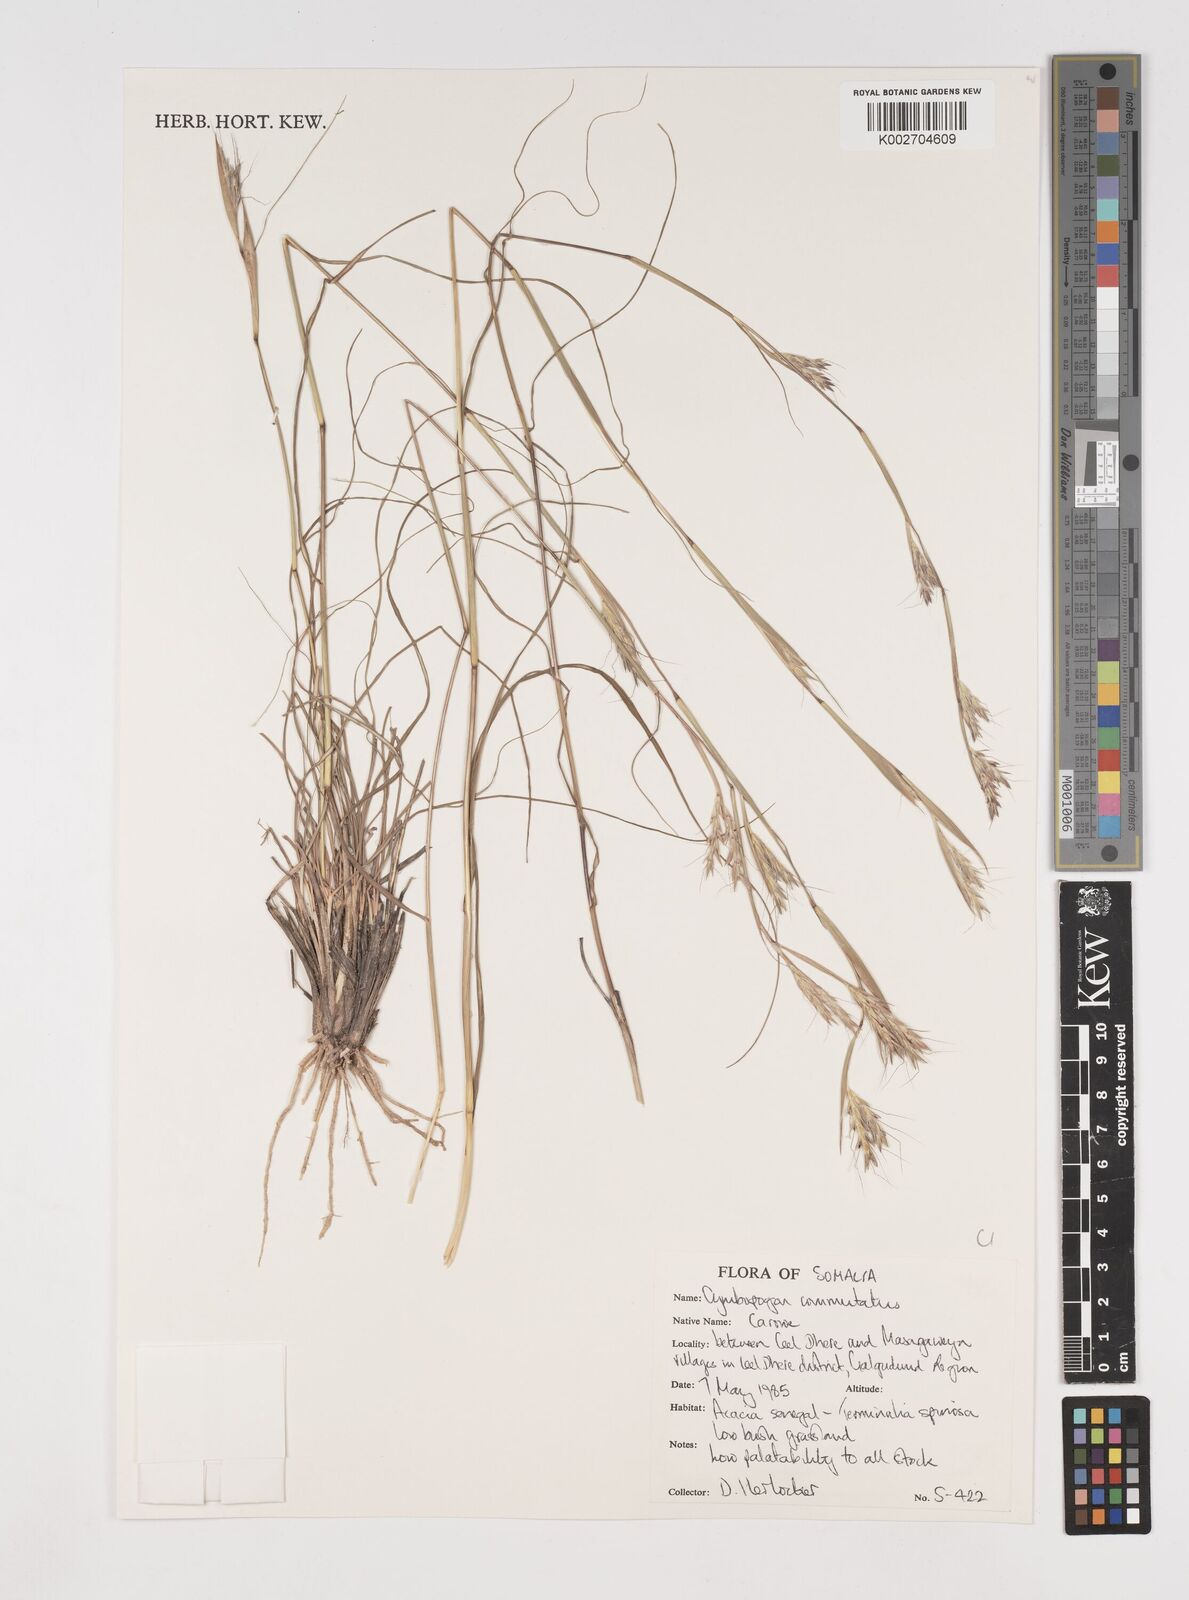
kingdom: Plantae
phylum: Tracheophyta
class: Liliopsida
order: Poales
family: Poaceae
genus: Cymbopogon
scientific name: Cymbopogon commutatus
